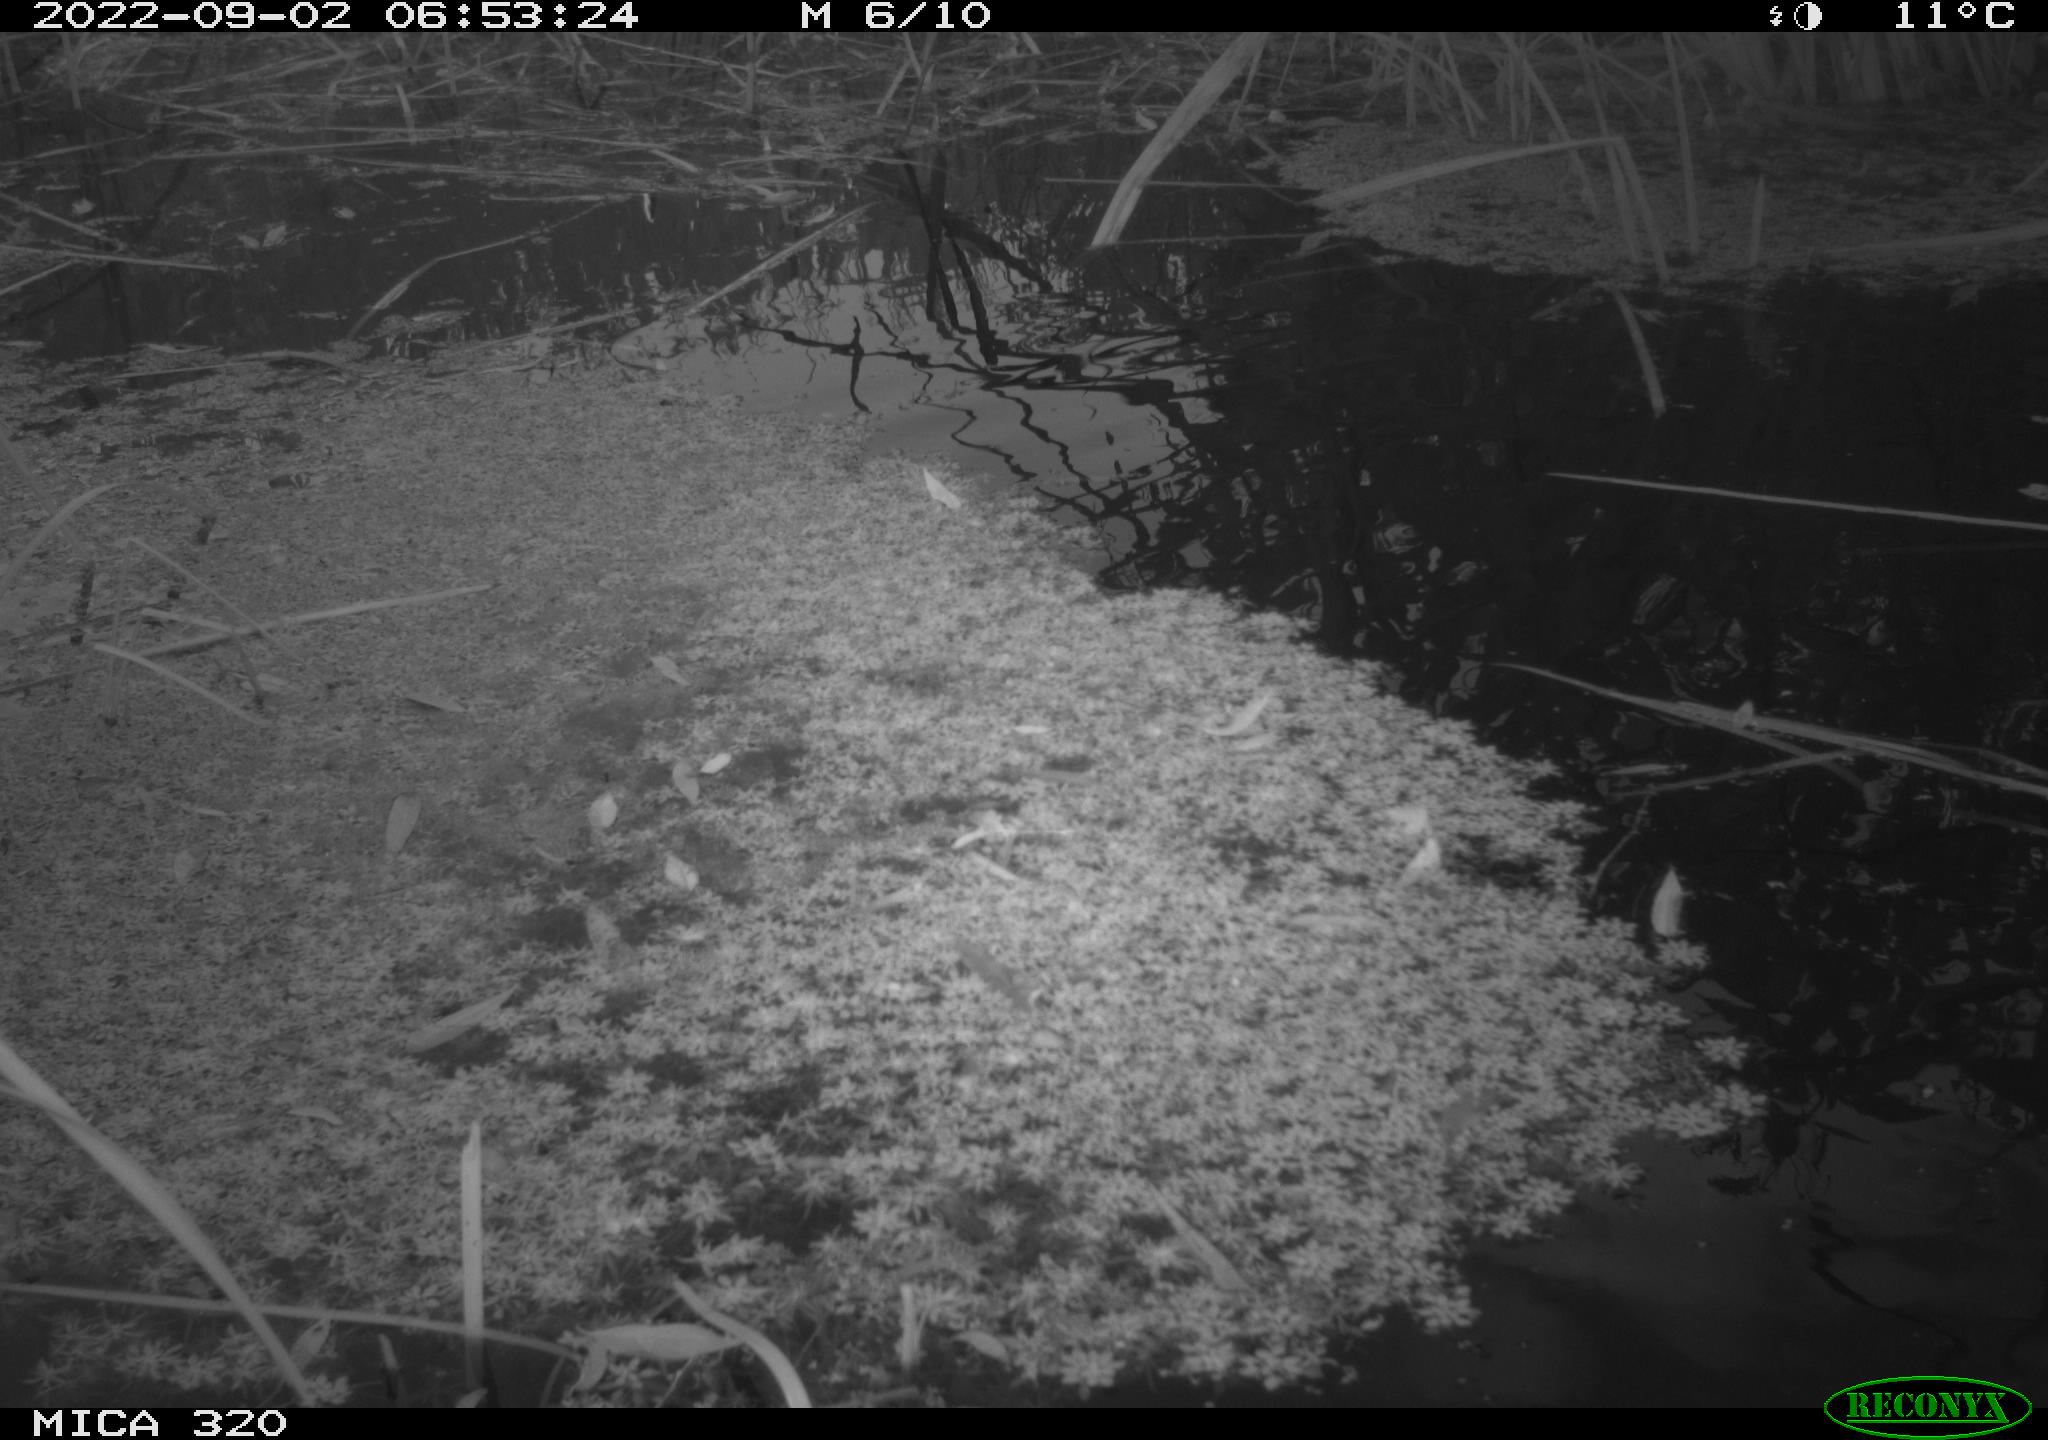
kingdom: Animalia
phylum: Chordata
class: Aves
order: Gruiformes
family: Rallidae
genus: Gallinula
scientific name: Gallinula chloropus
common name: Common moorhen
